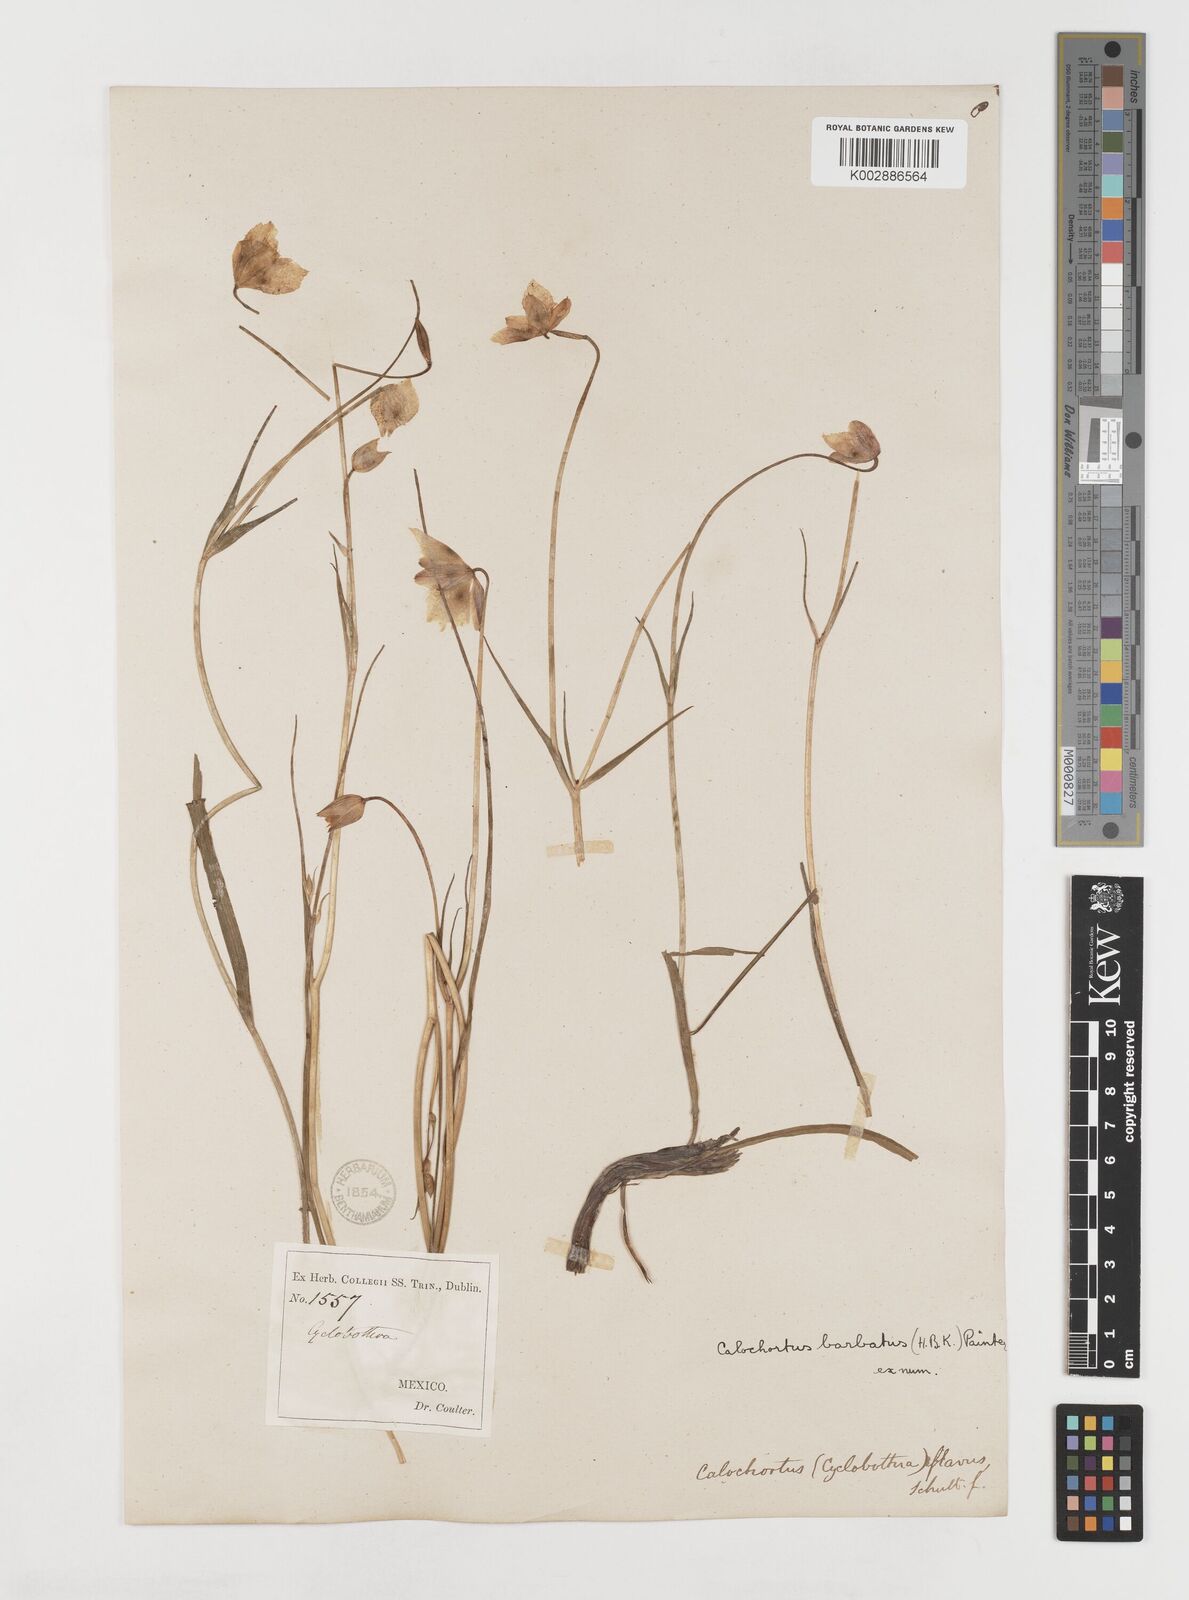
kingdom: Plantae
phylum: Tracheophyta
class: Liliopsida
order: Liliales
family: Liliaceae
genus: Calochortus
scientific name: Calochortus barbatus
